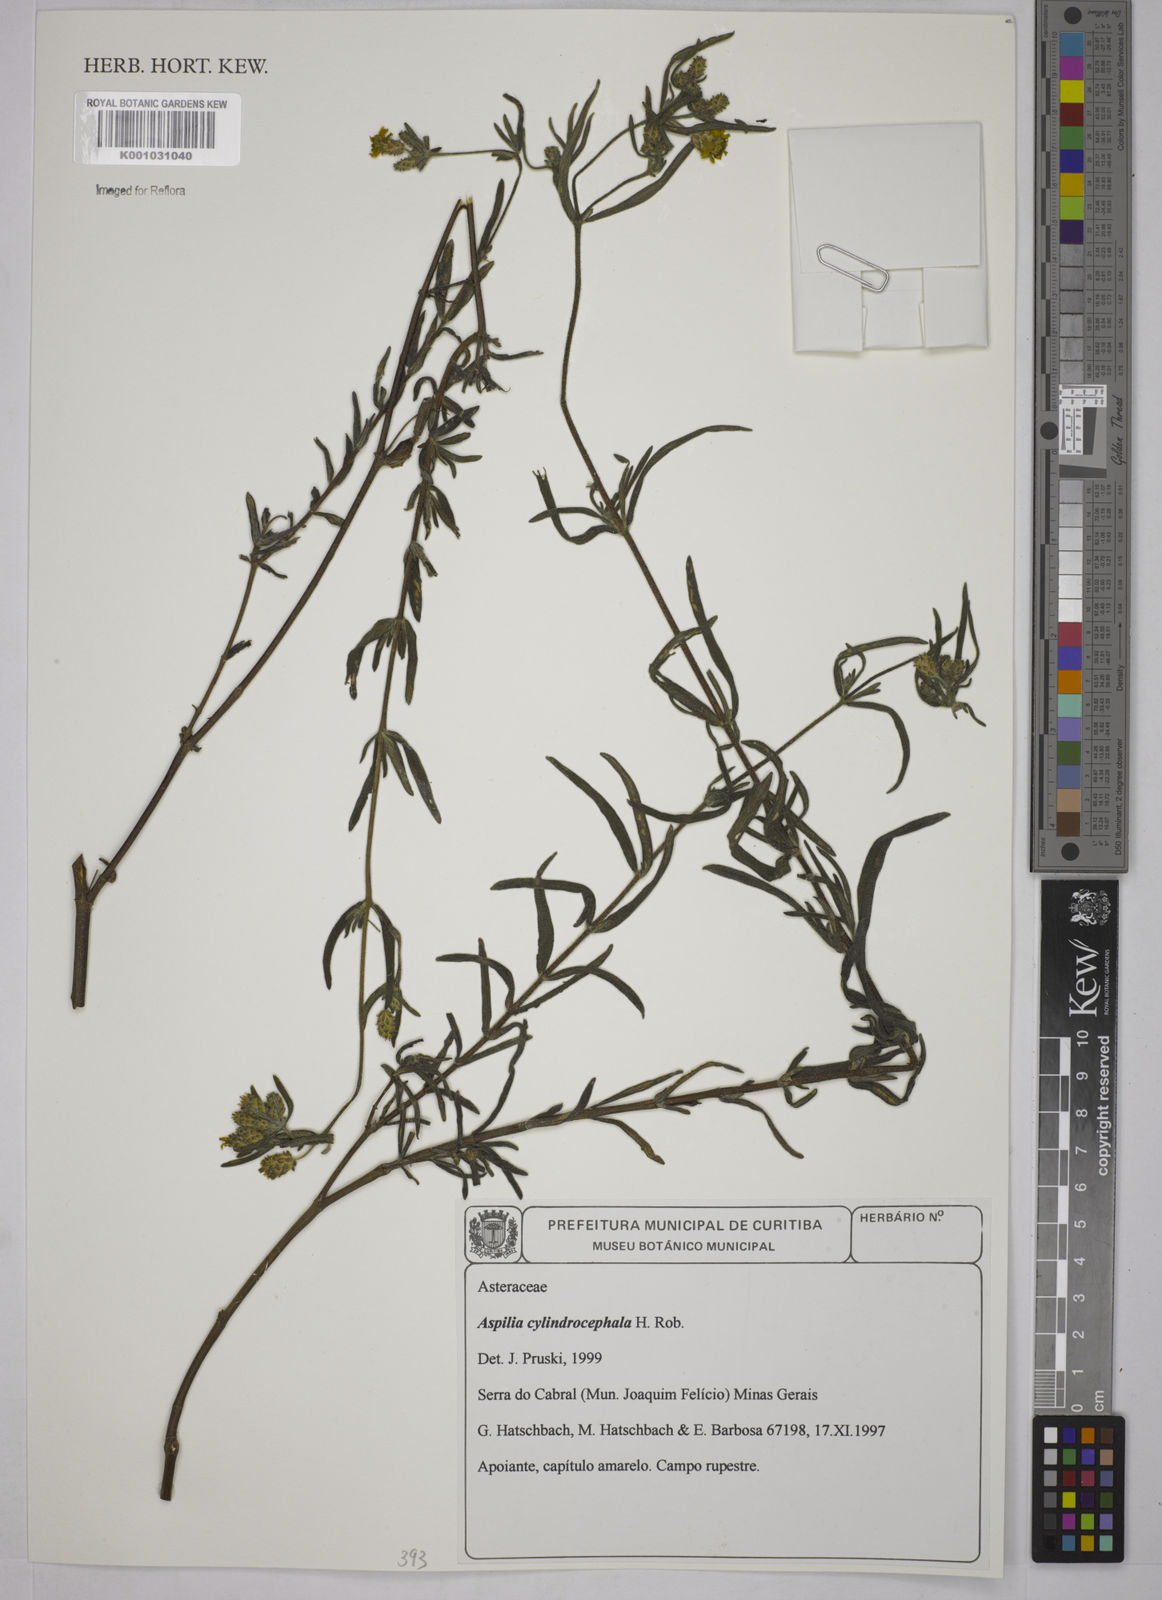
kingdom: Plantae
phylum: Tracheophyta
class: Magnoliopsida
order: Asterales
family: Asteraceae
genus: Wedelia
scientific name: Wedelia cylindrocephala
